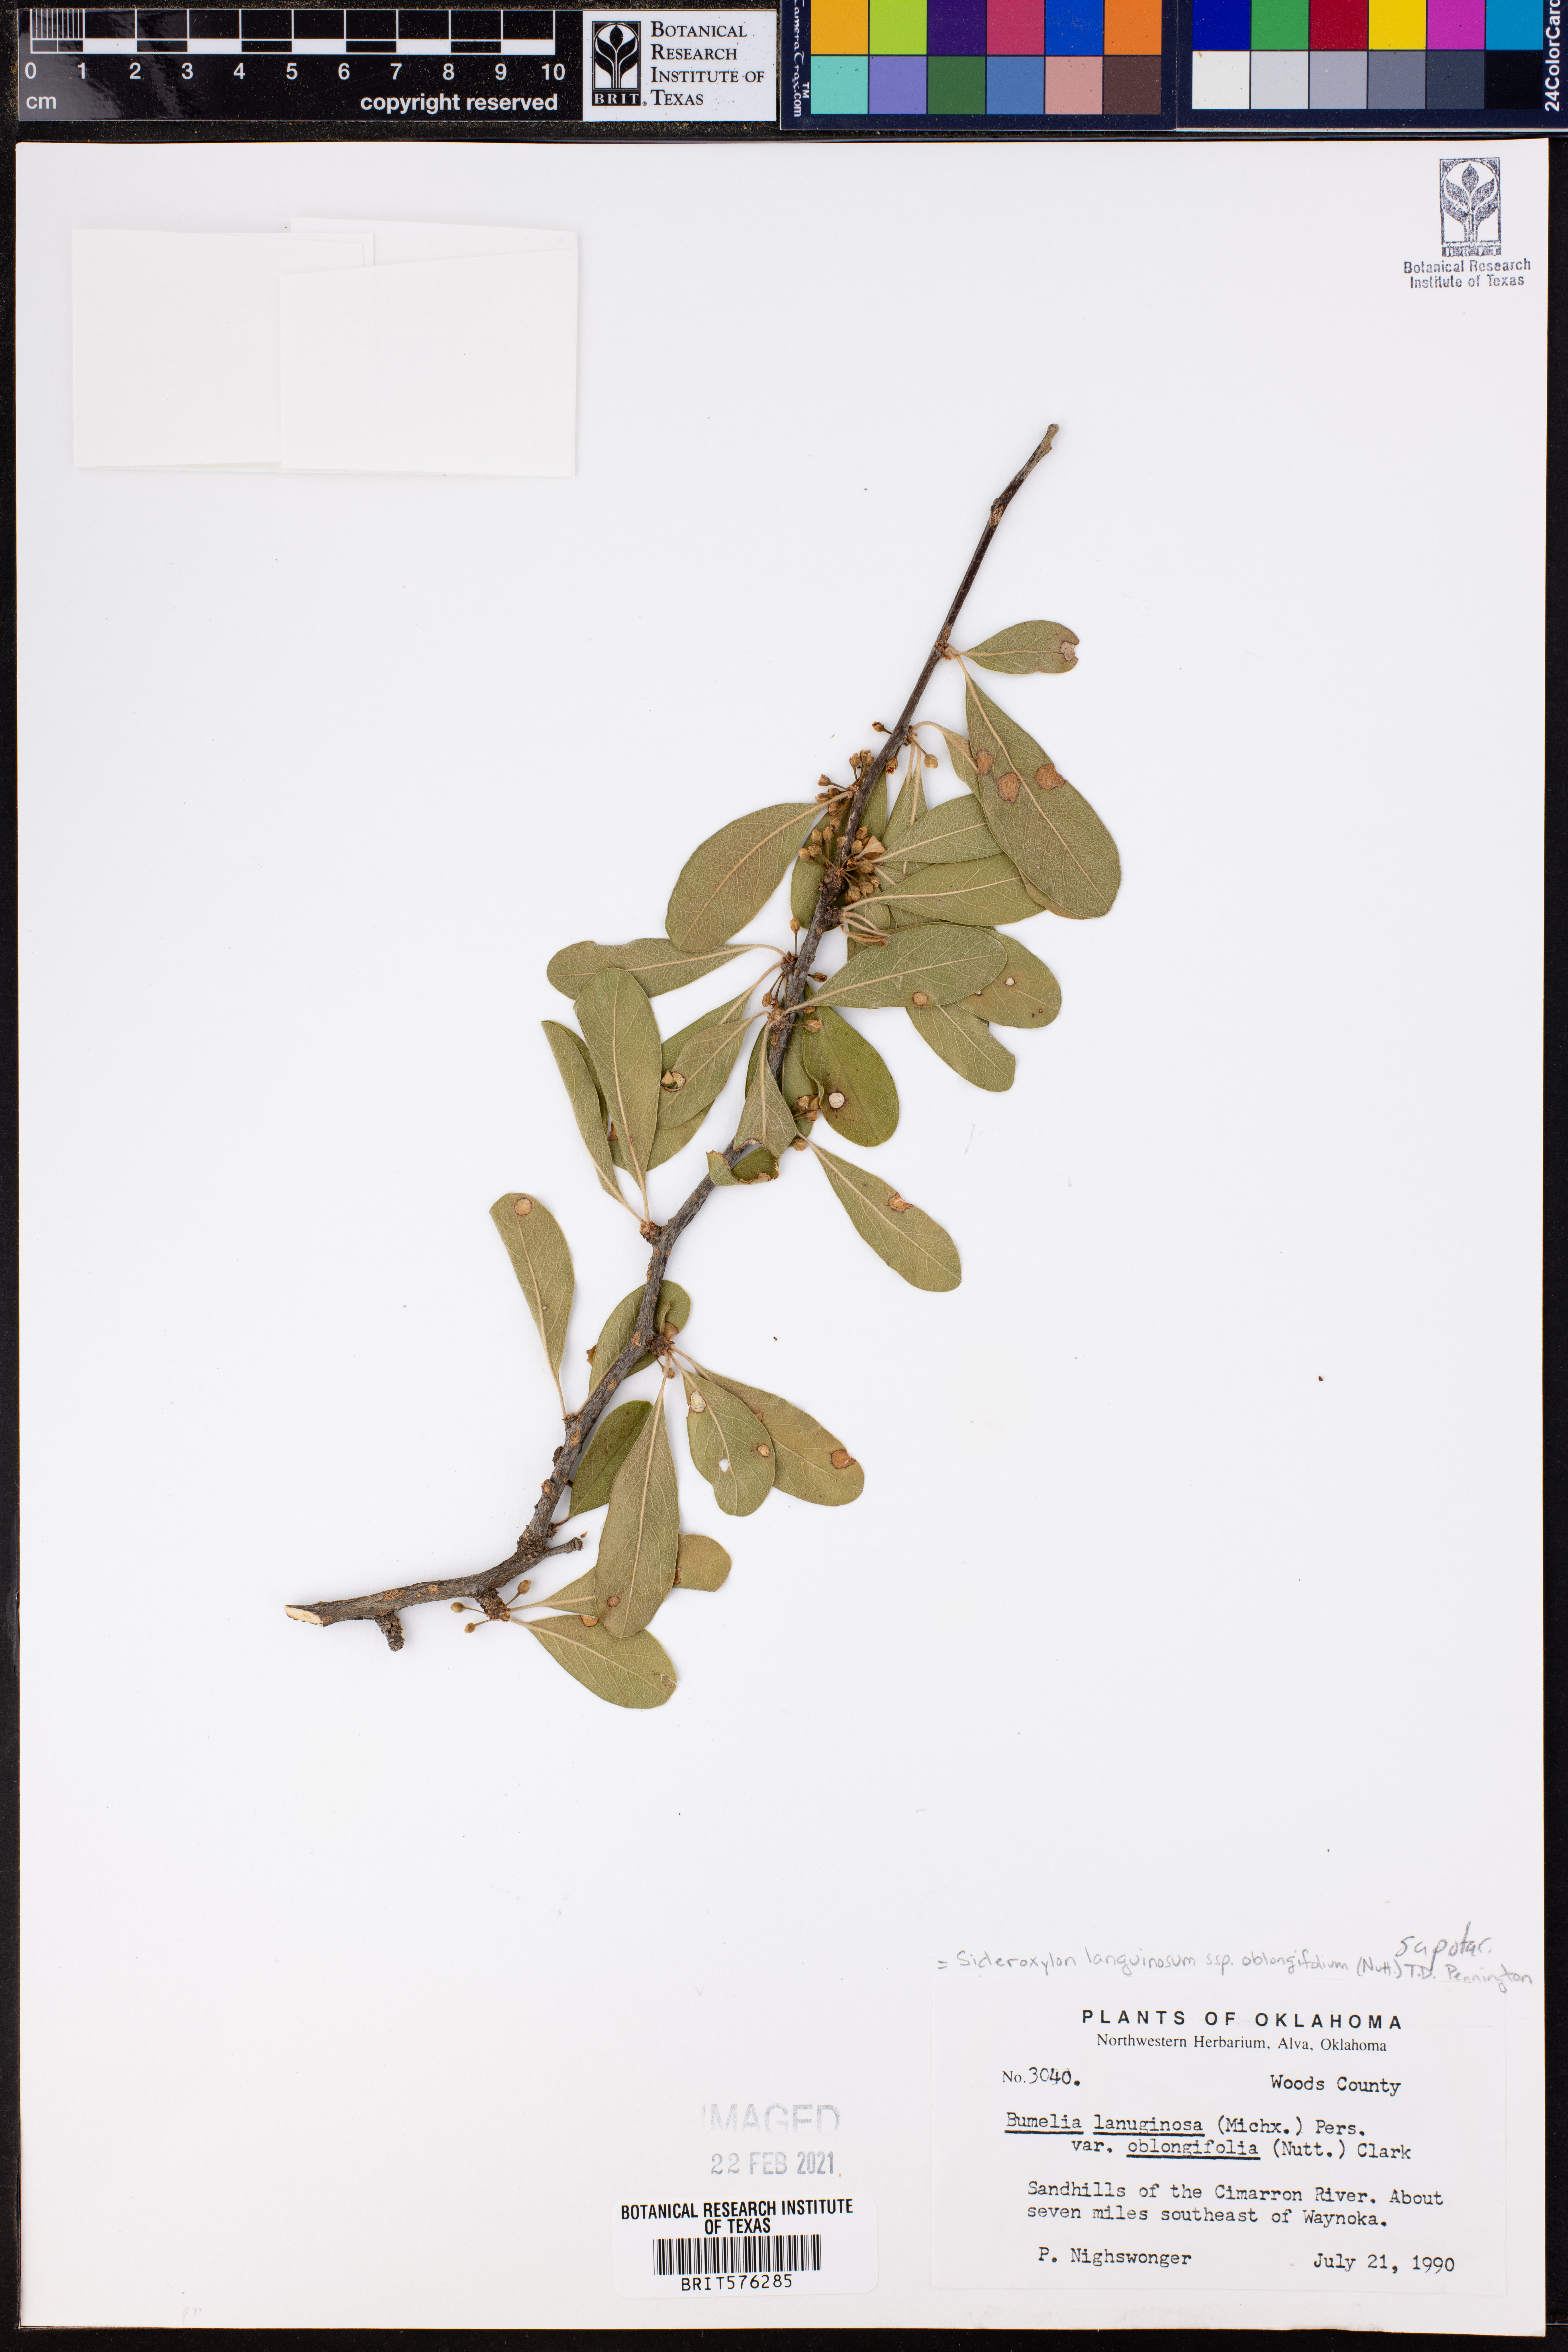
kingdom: Plantae
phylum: Tracheophyta
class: Magnoliopsida
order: Ericales
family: Sapotaceae
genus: Sideroxylon
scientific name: Sideroxylon lanuginosum
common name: Chittamwood
